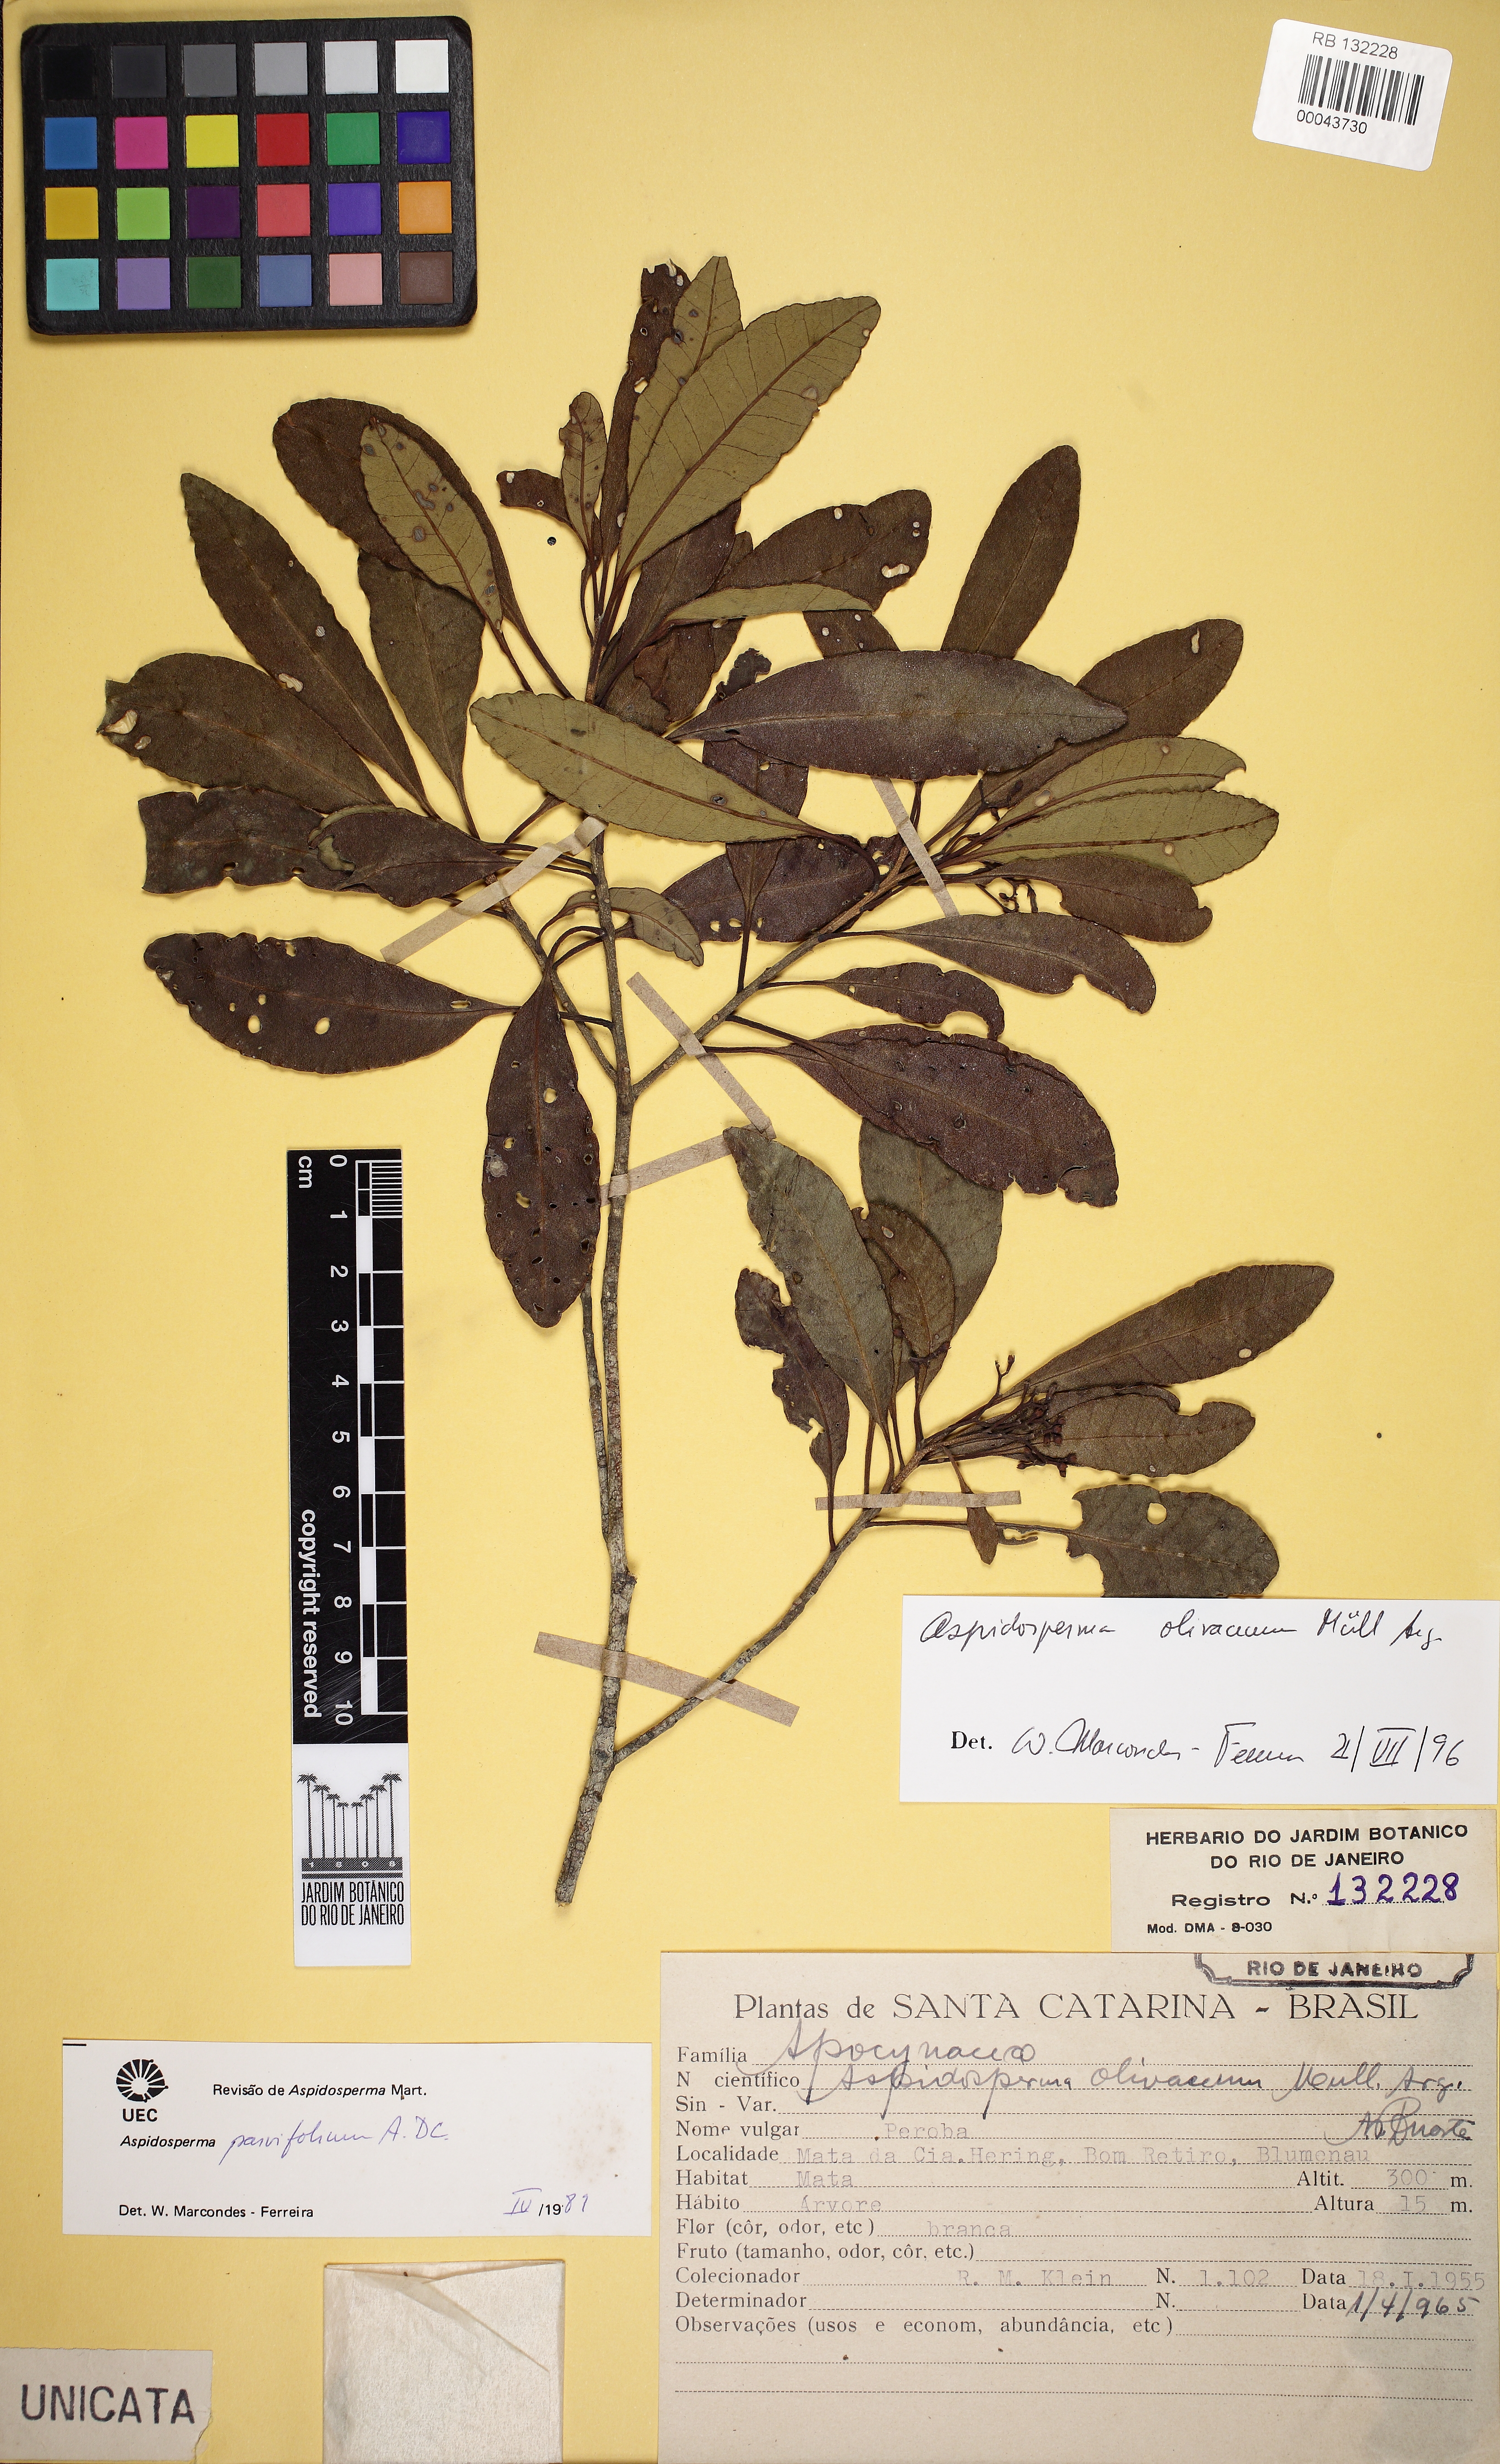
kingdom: Plantae
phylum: Tracheophyta
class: Magnoliopsida
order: Gentianales
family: Apocynaceae
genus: Aspidosperma
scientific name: Aspidosperma olivaceum
